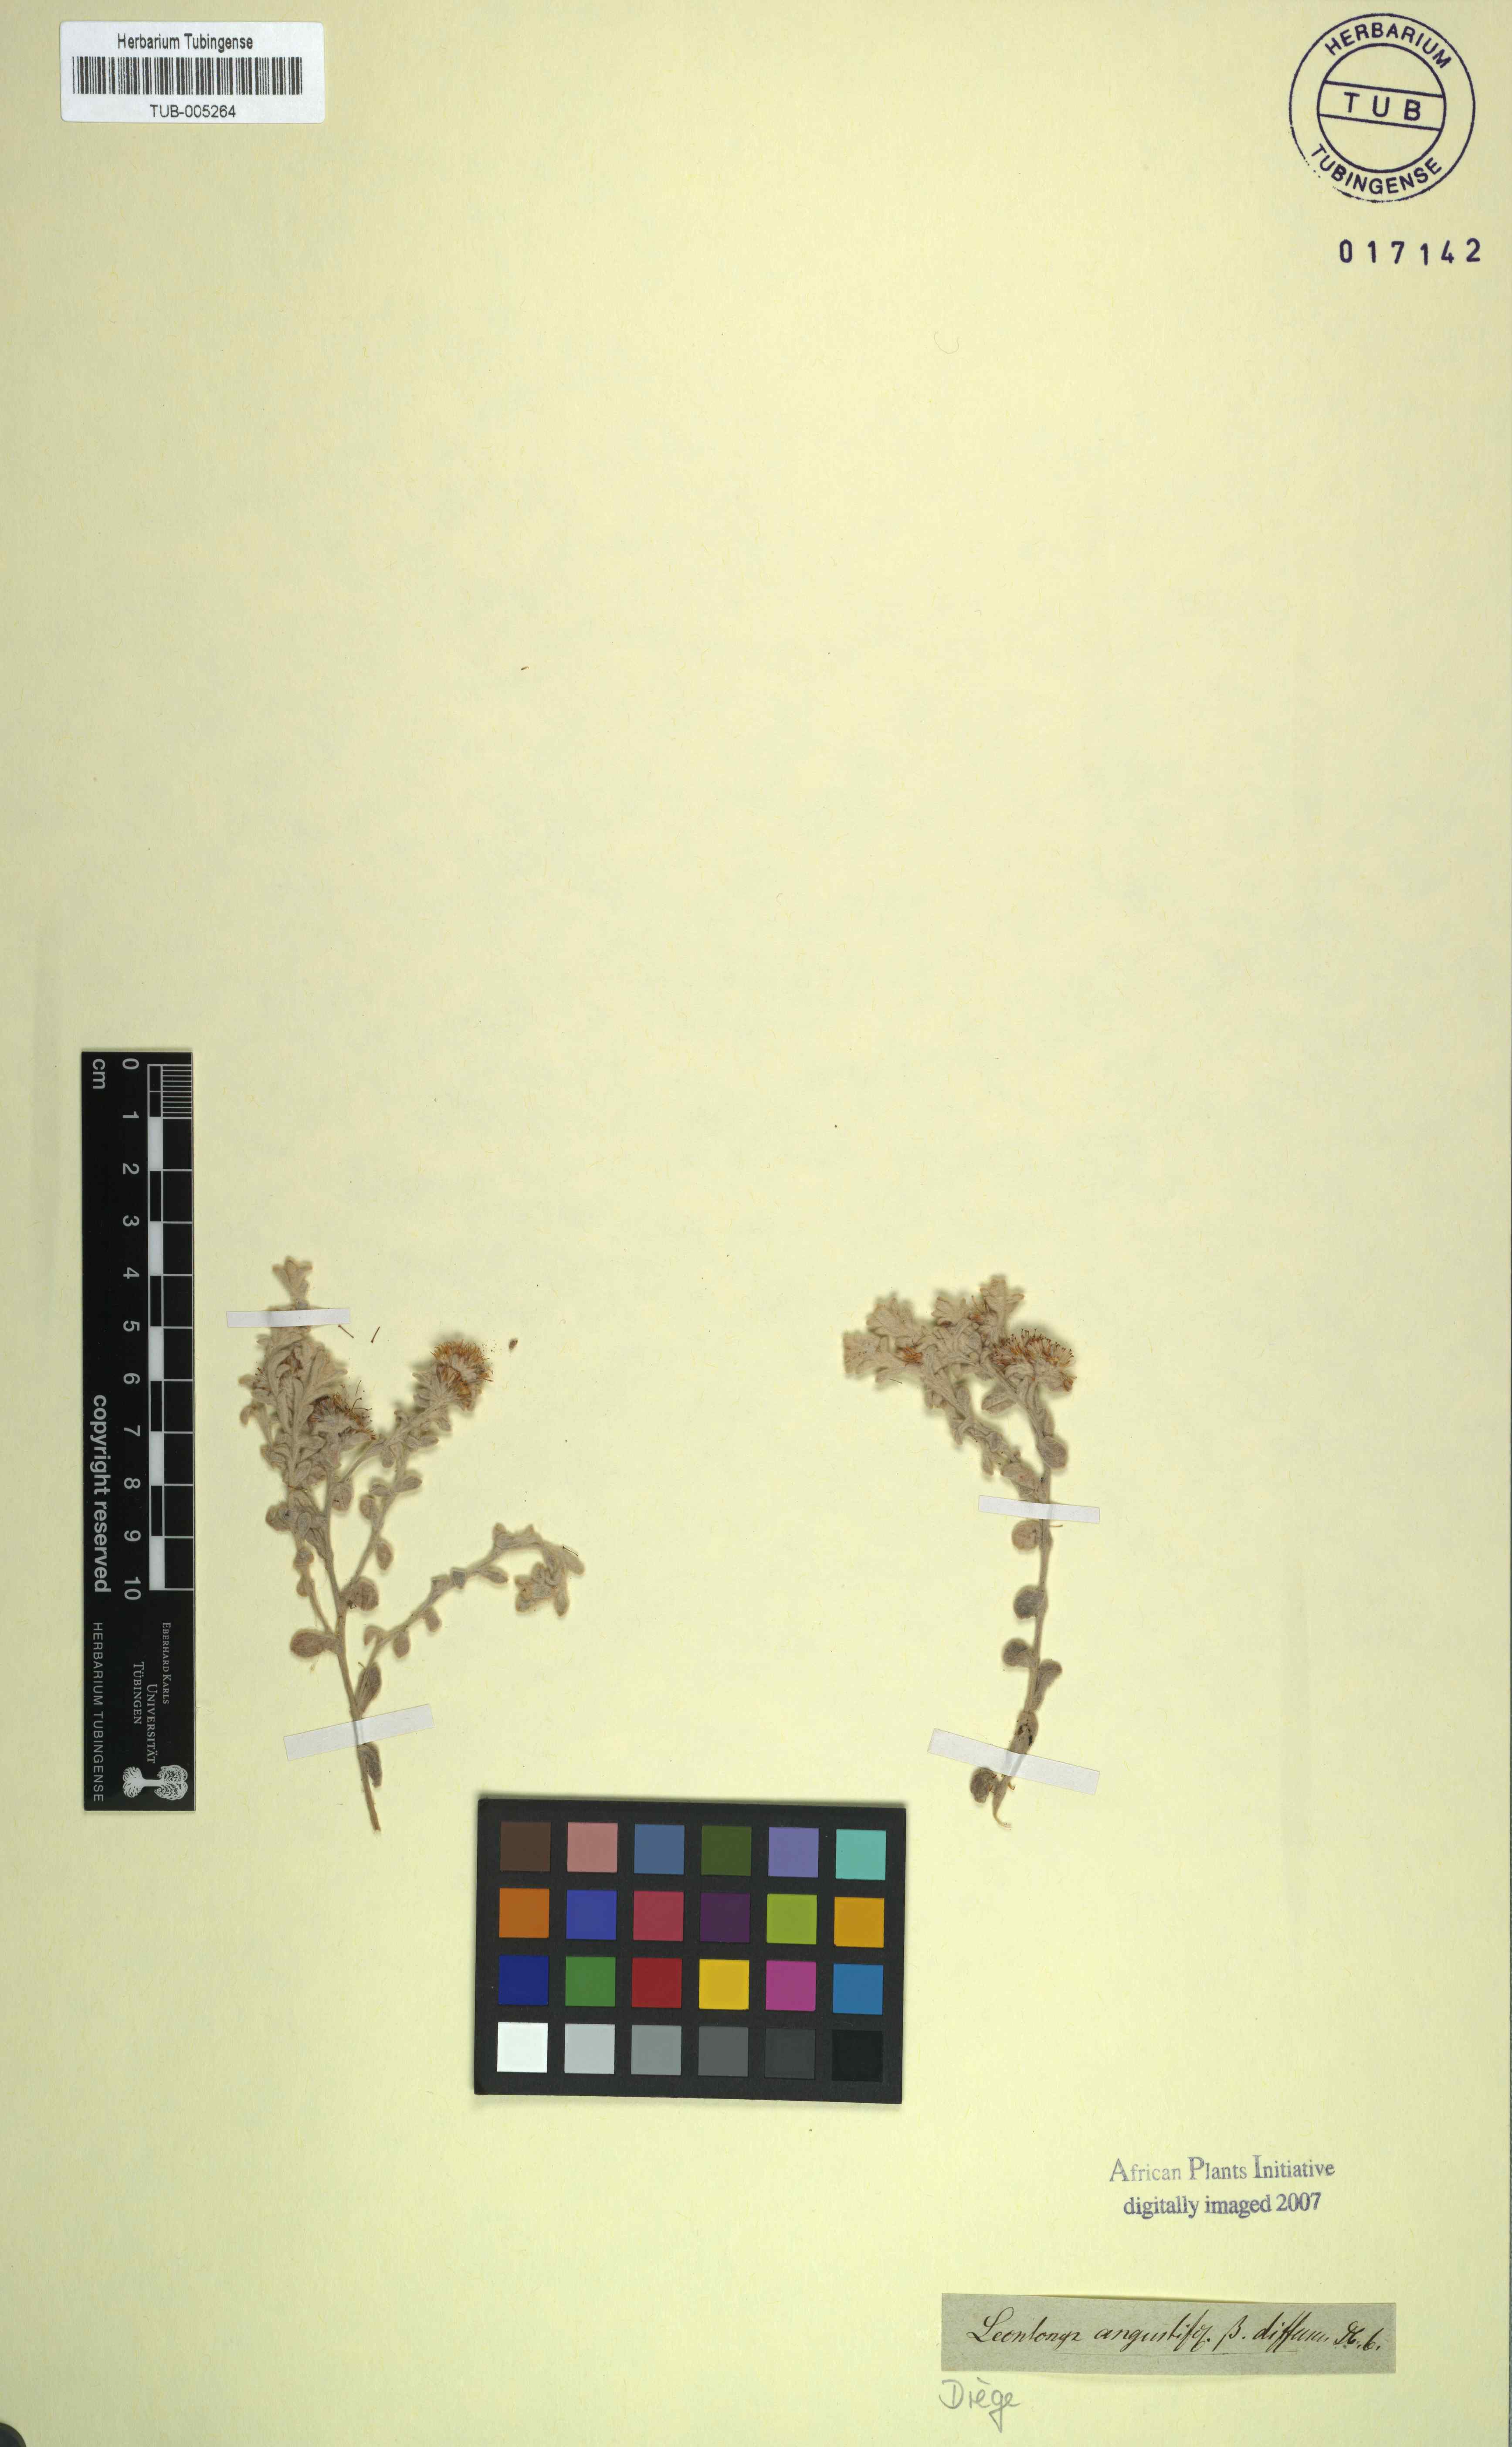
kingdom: Plantae
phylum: Tracheophyta
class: Magnoliopsida
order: Asterales
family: Asteraceae
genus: Helichrysum
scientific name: Helichrysum litorale
